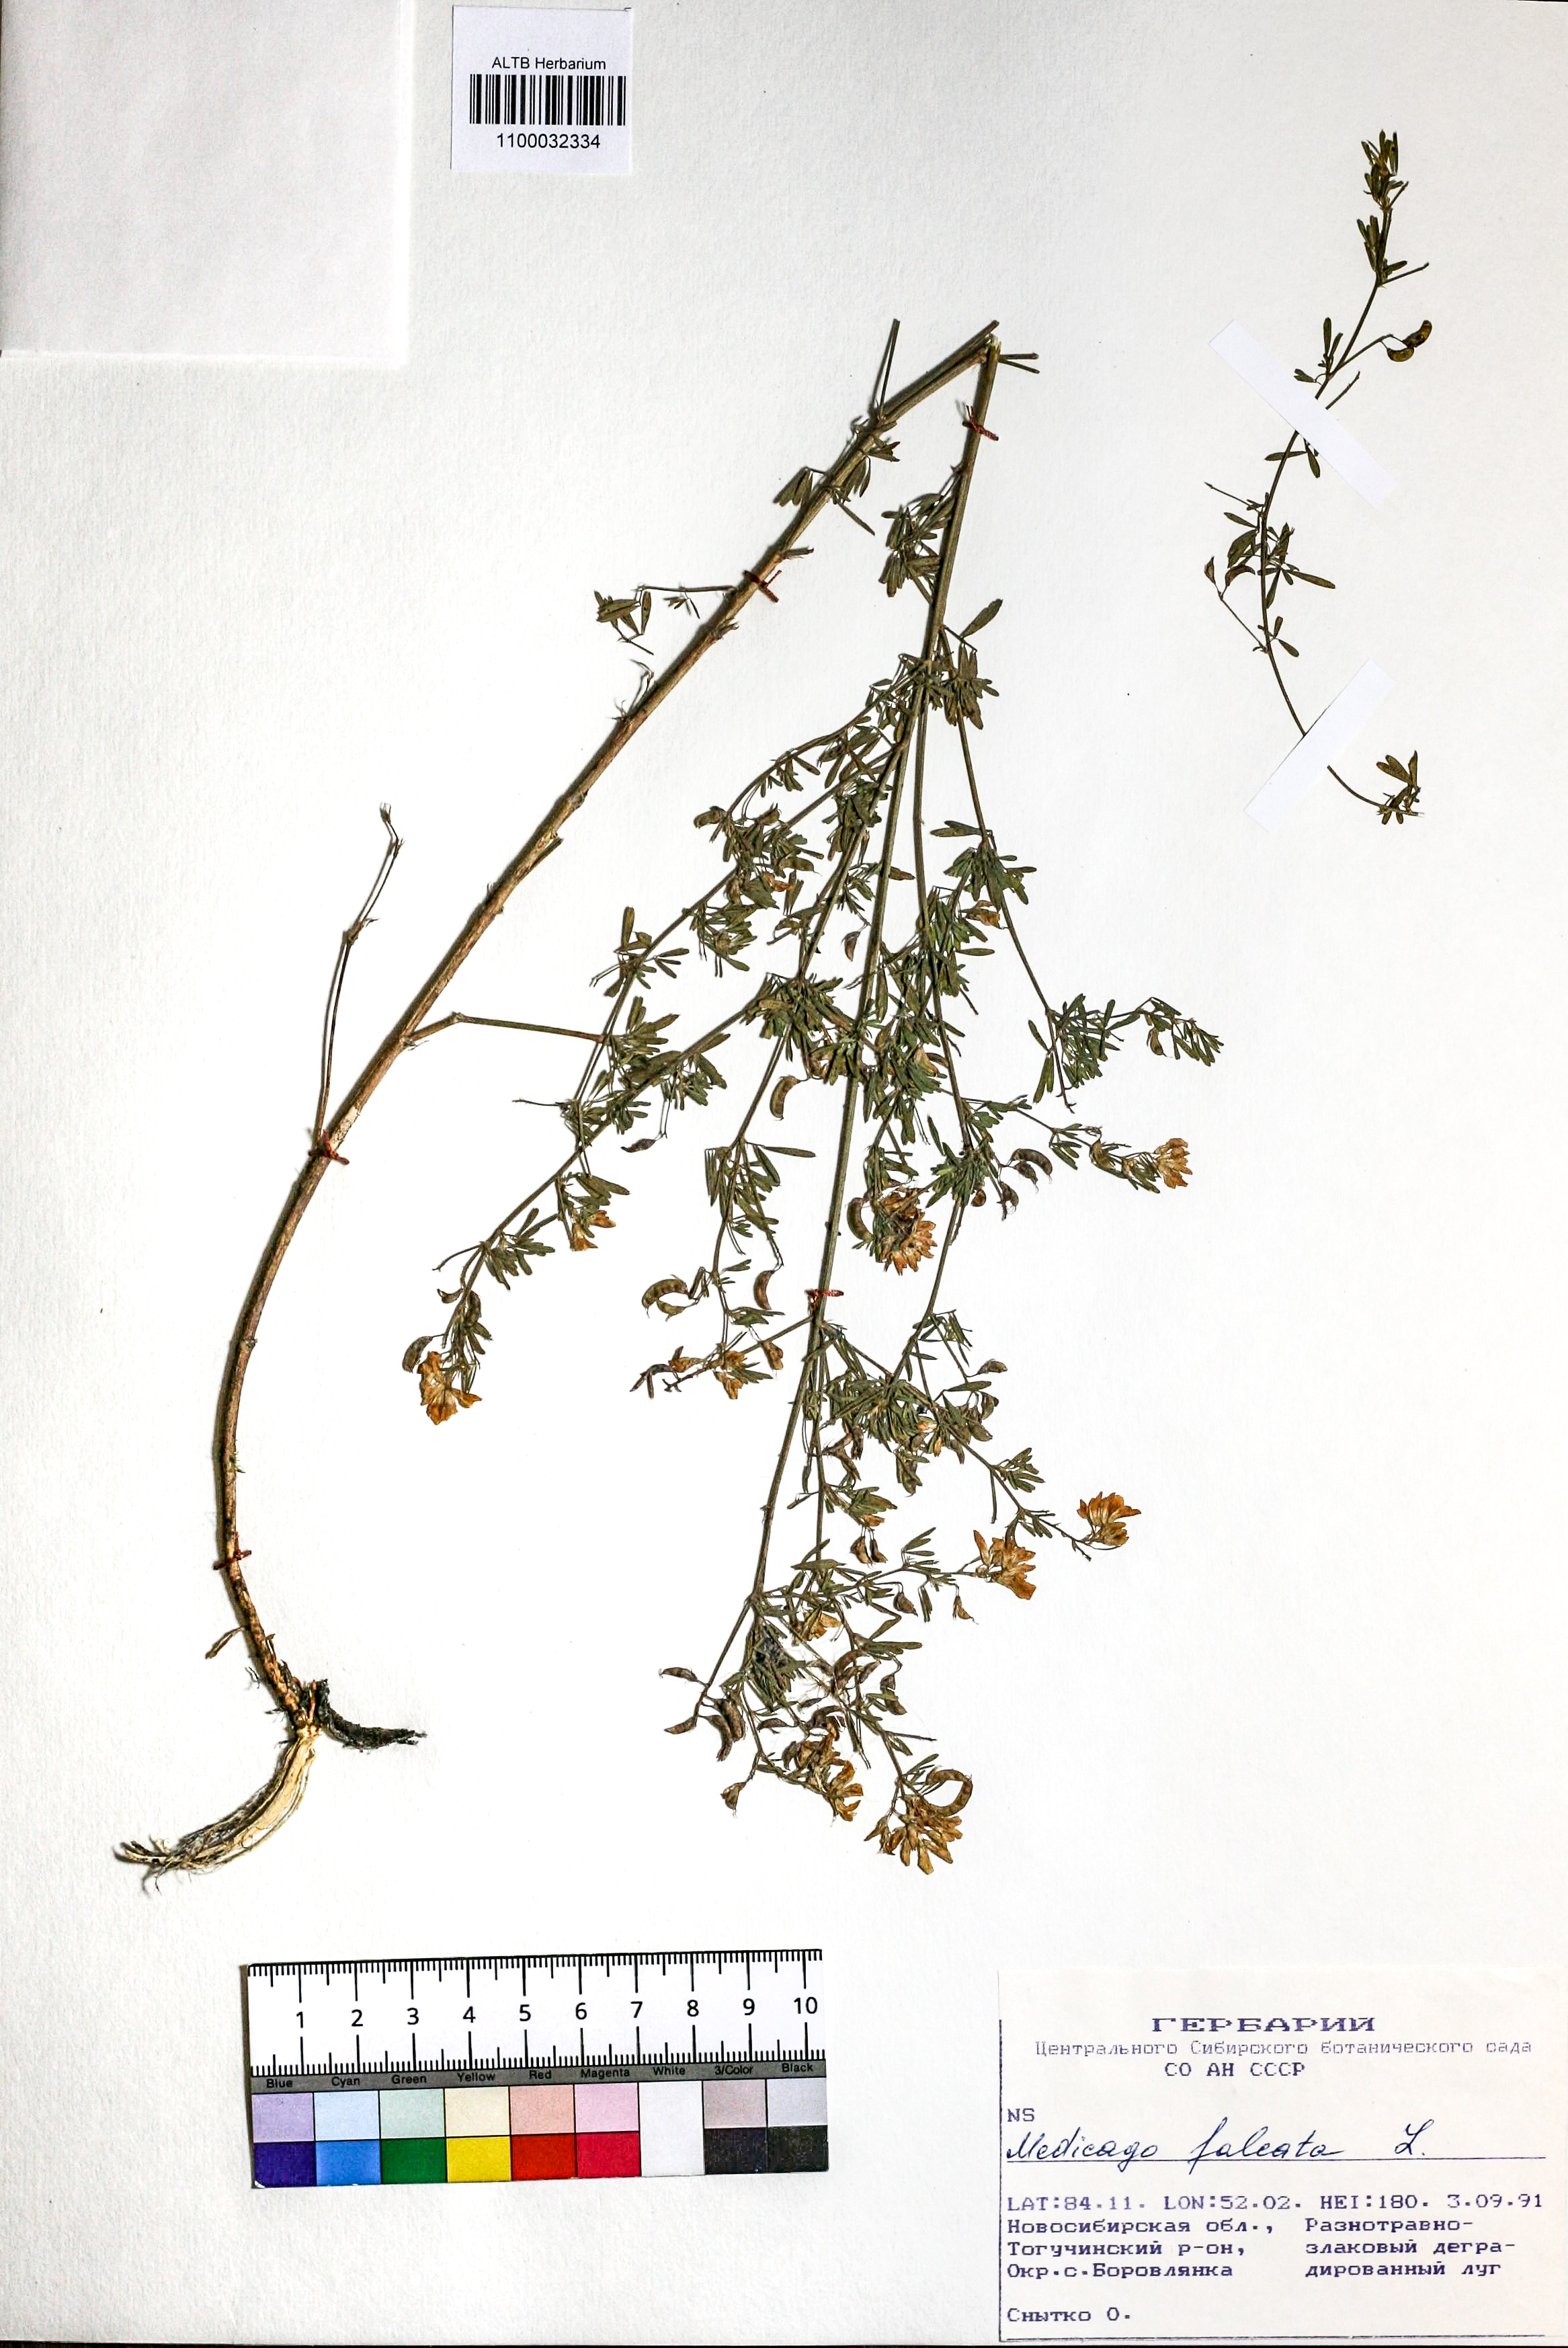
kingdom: Plantae
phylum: Tracheophyta
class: Magnoliopsida
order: Fabales
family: Fabaceae
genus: Medicago
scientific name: Medicago falcata
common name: Sickle medick
